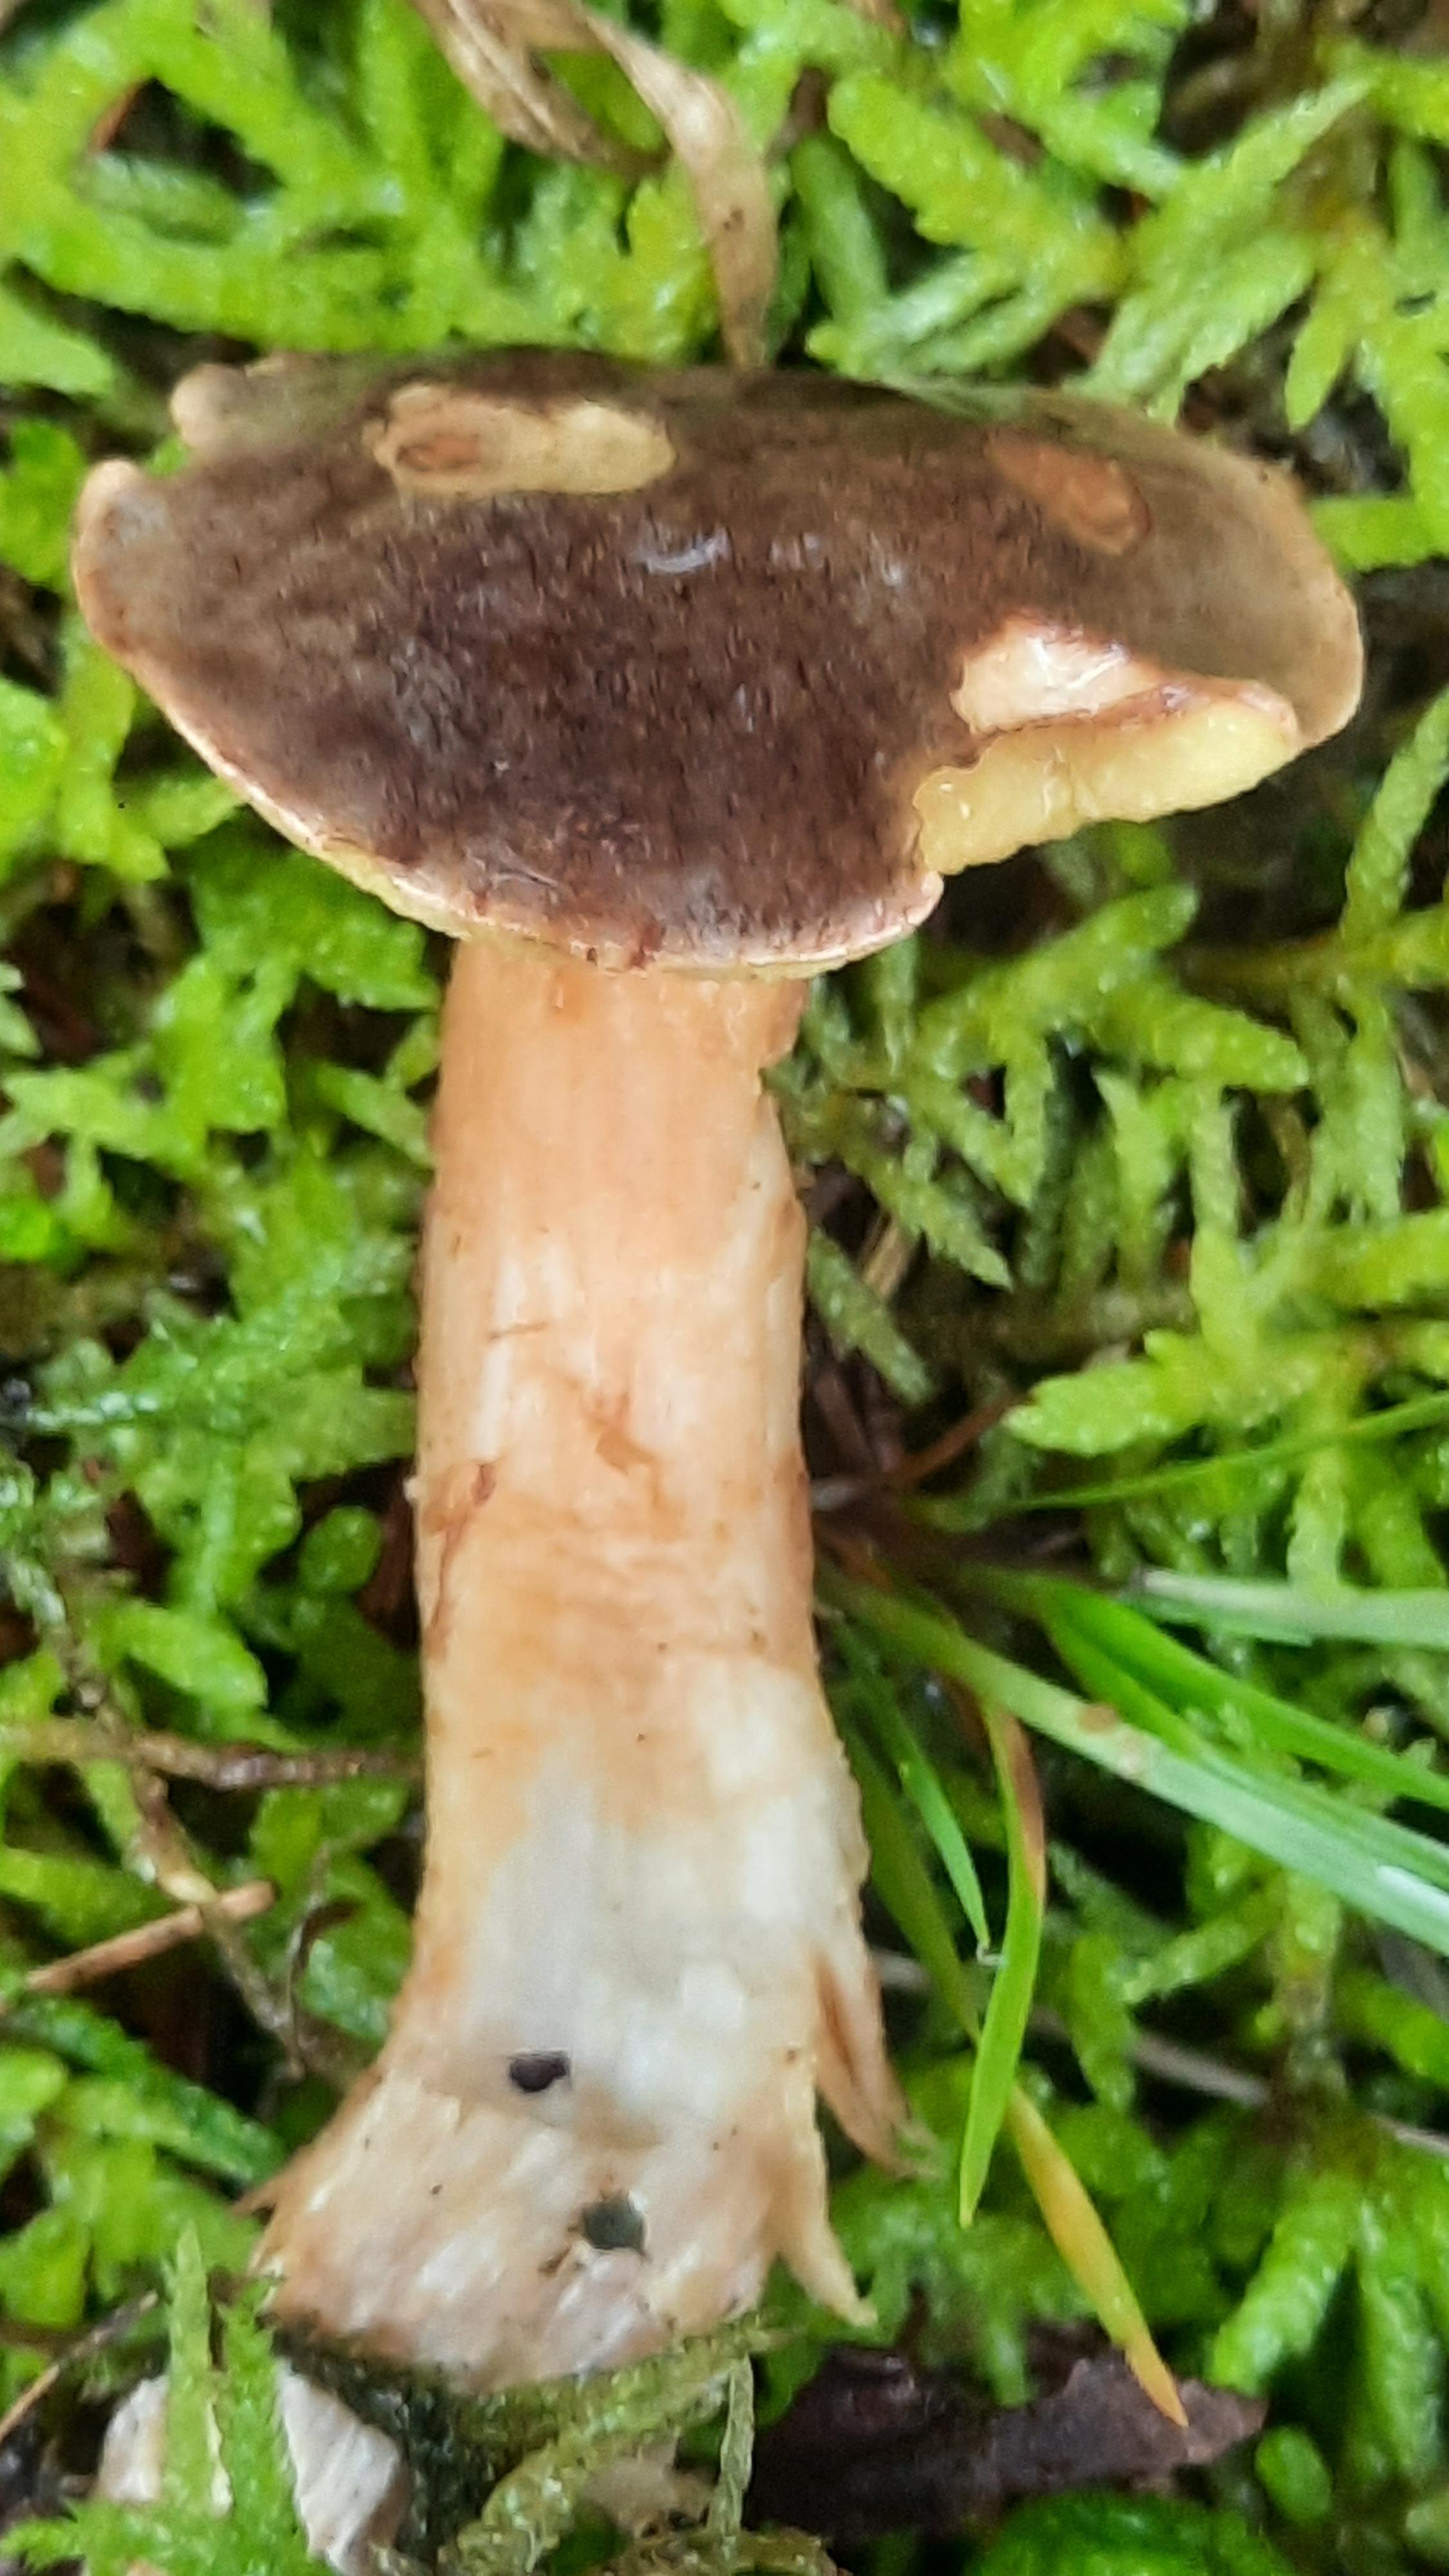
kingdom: Fungi
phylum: Basidiomycota
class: Agaricomycetes
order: Boletales
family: Boletaceae
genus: Xerocomus
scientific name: Xerocomus
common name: filtrørhat
